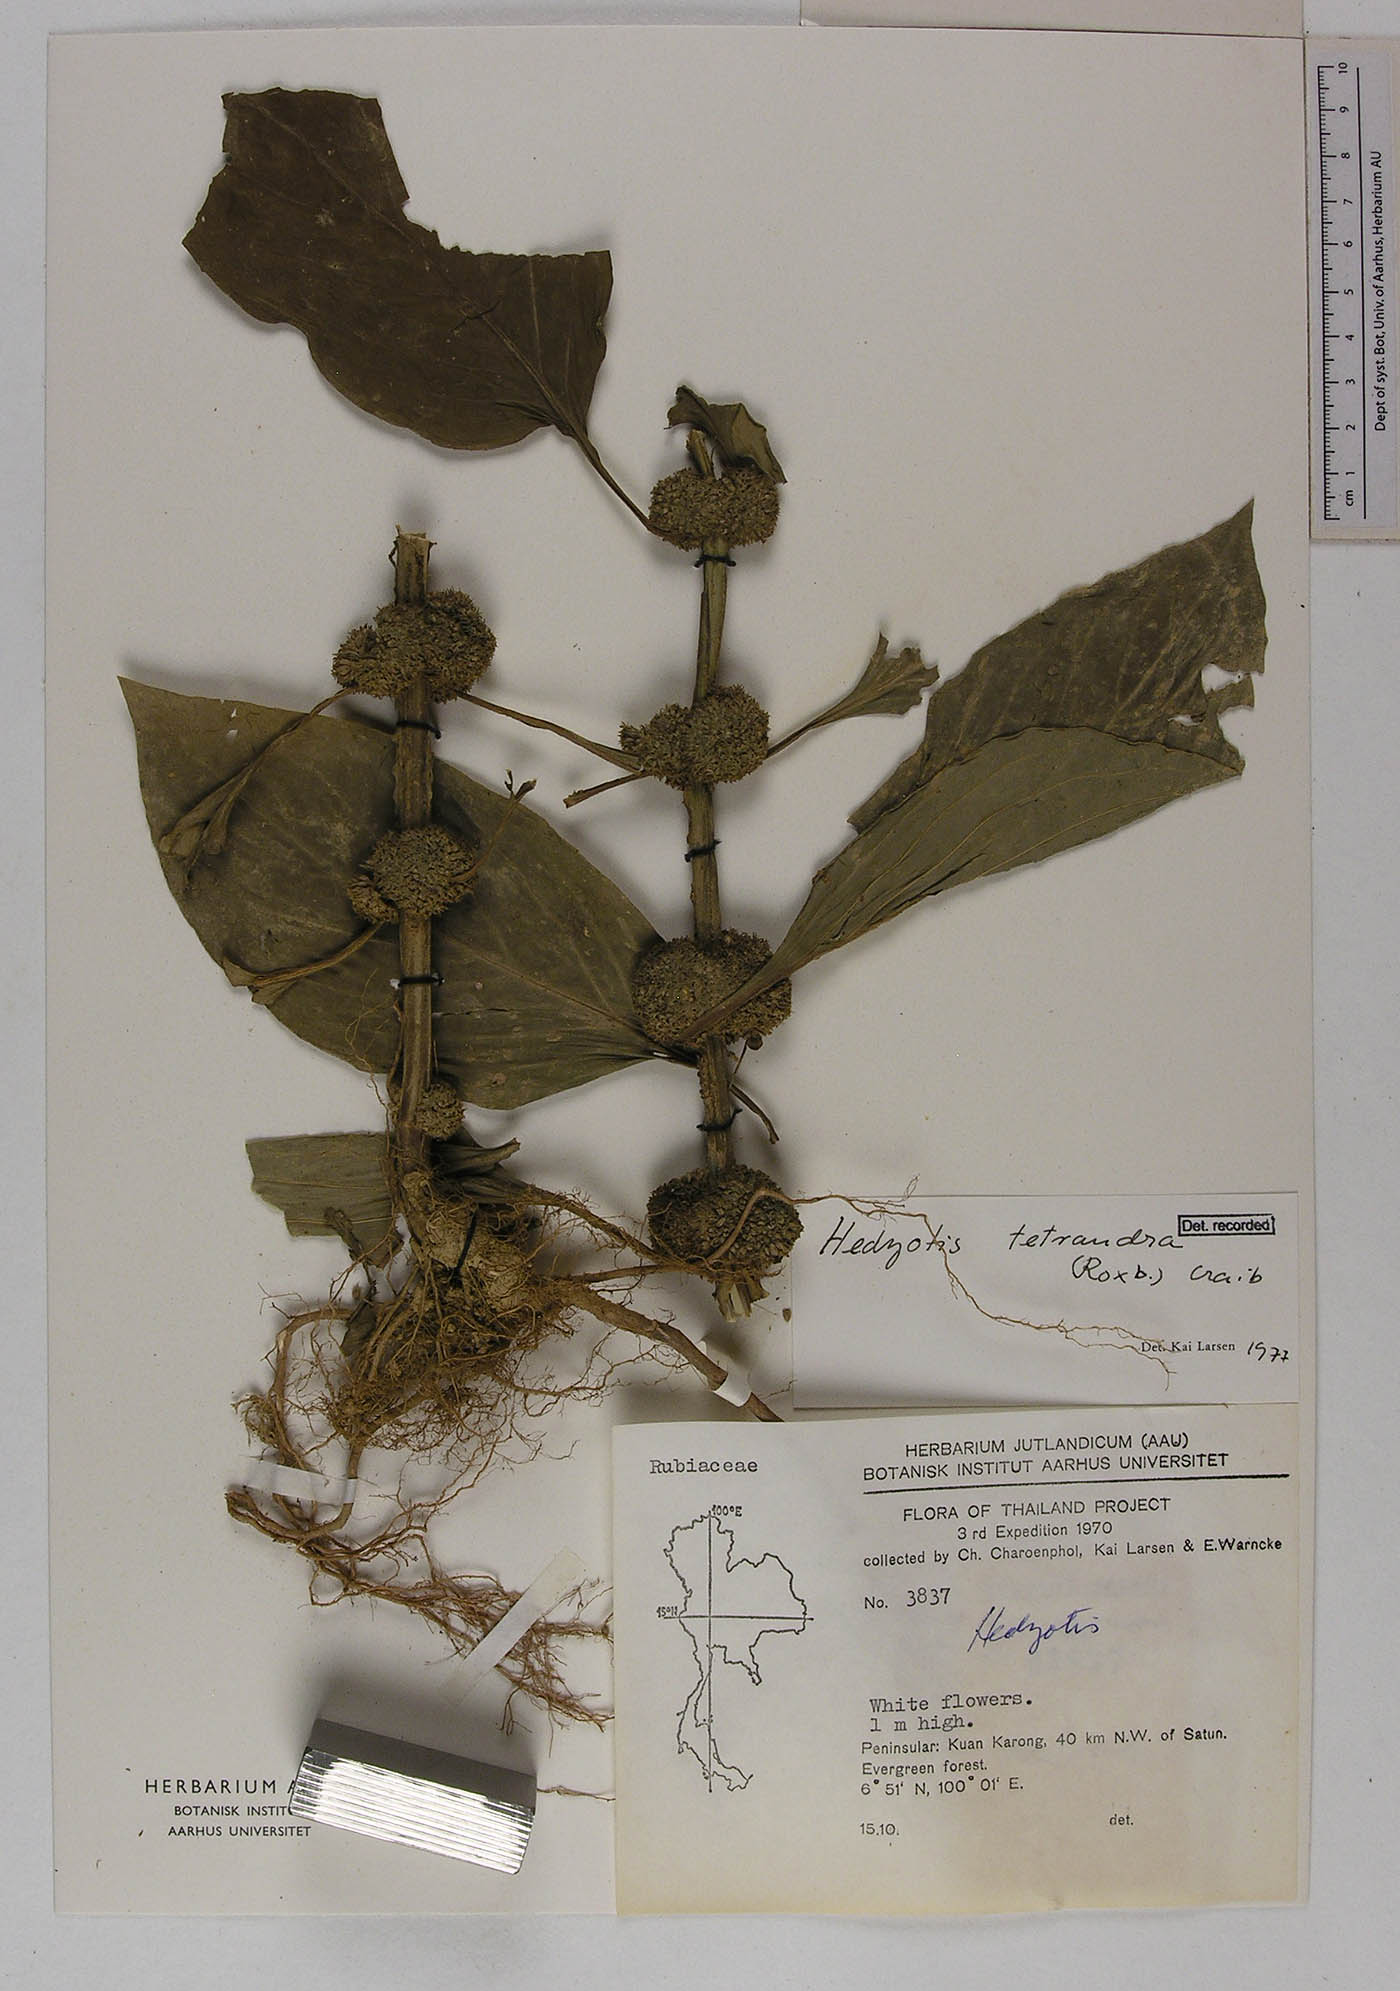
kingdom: Plantae
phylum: Tracheophyta
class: Magnoliopsida
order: Gentianales
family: Rubiaceae
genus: Hedyotis
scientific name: Hedyotis tetrandra
